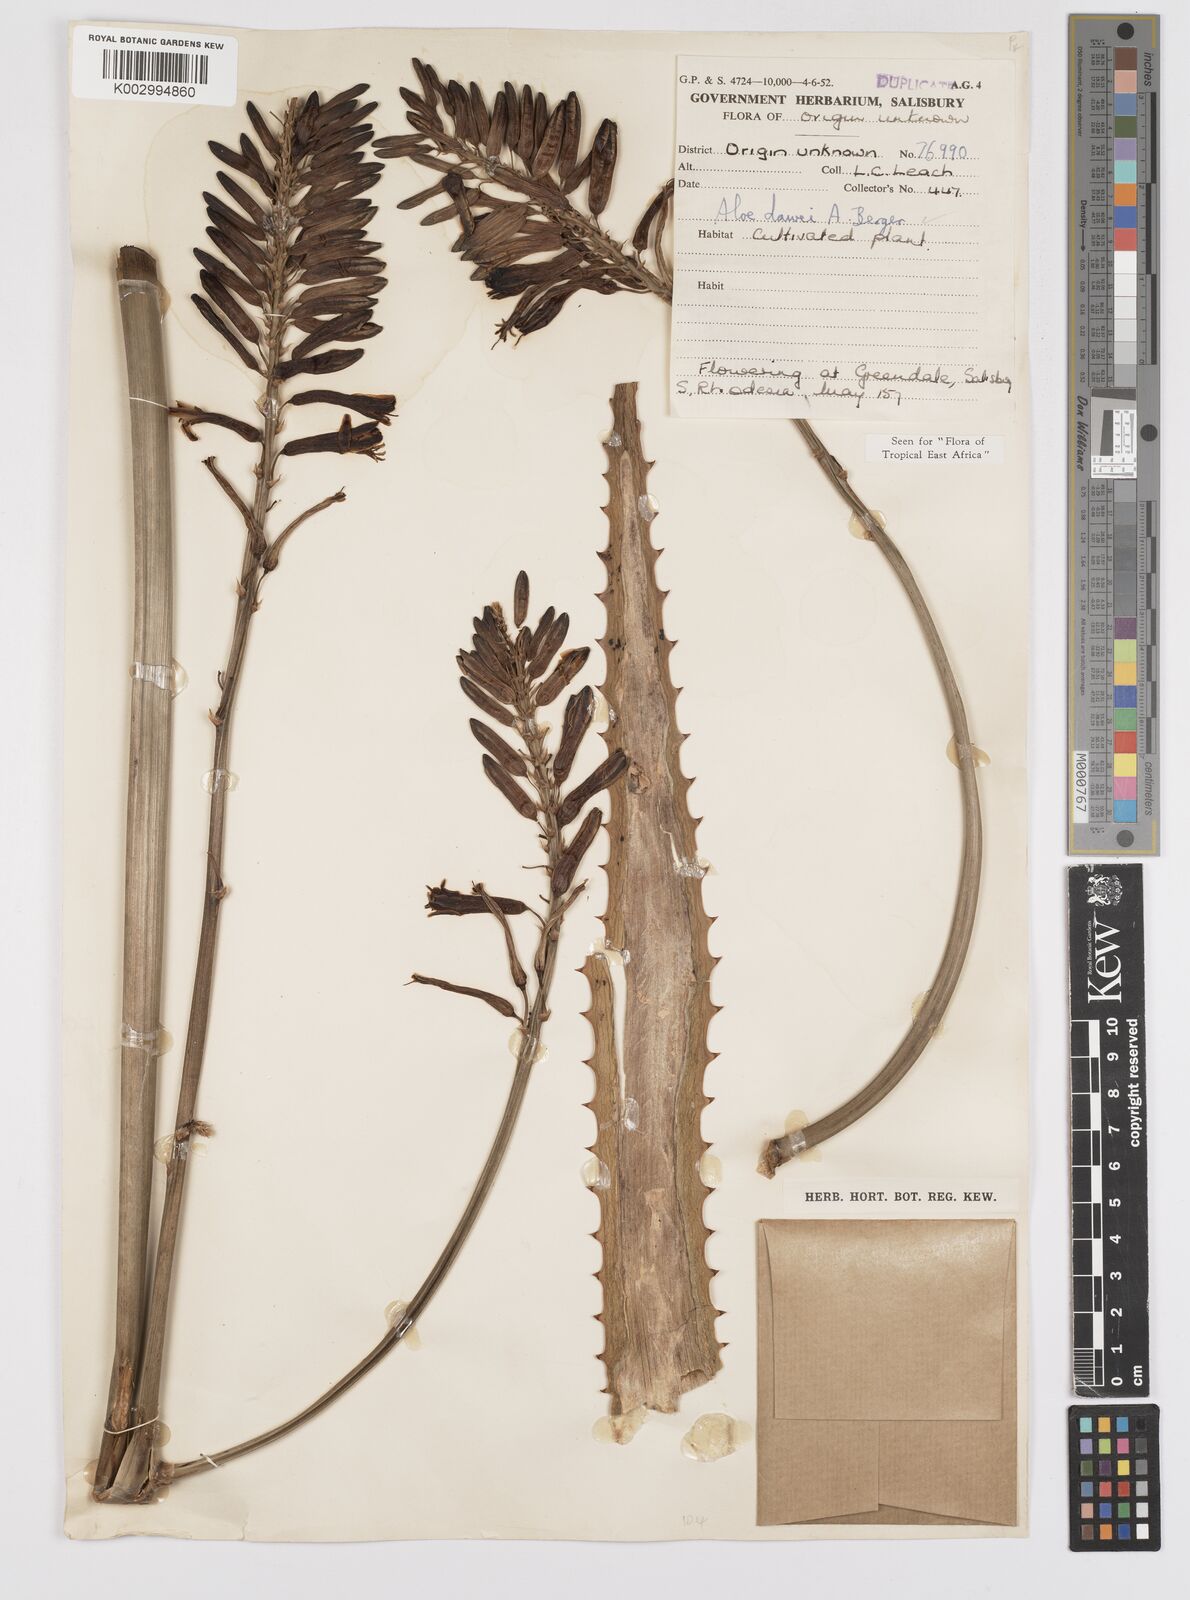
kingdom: Plantae
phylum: Tracheophyta
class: Liliopsida
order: Asparagales
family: Asphodelaceae
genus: Aloe
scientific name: Aloe
